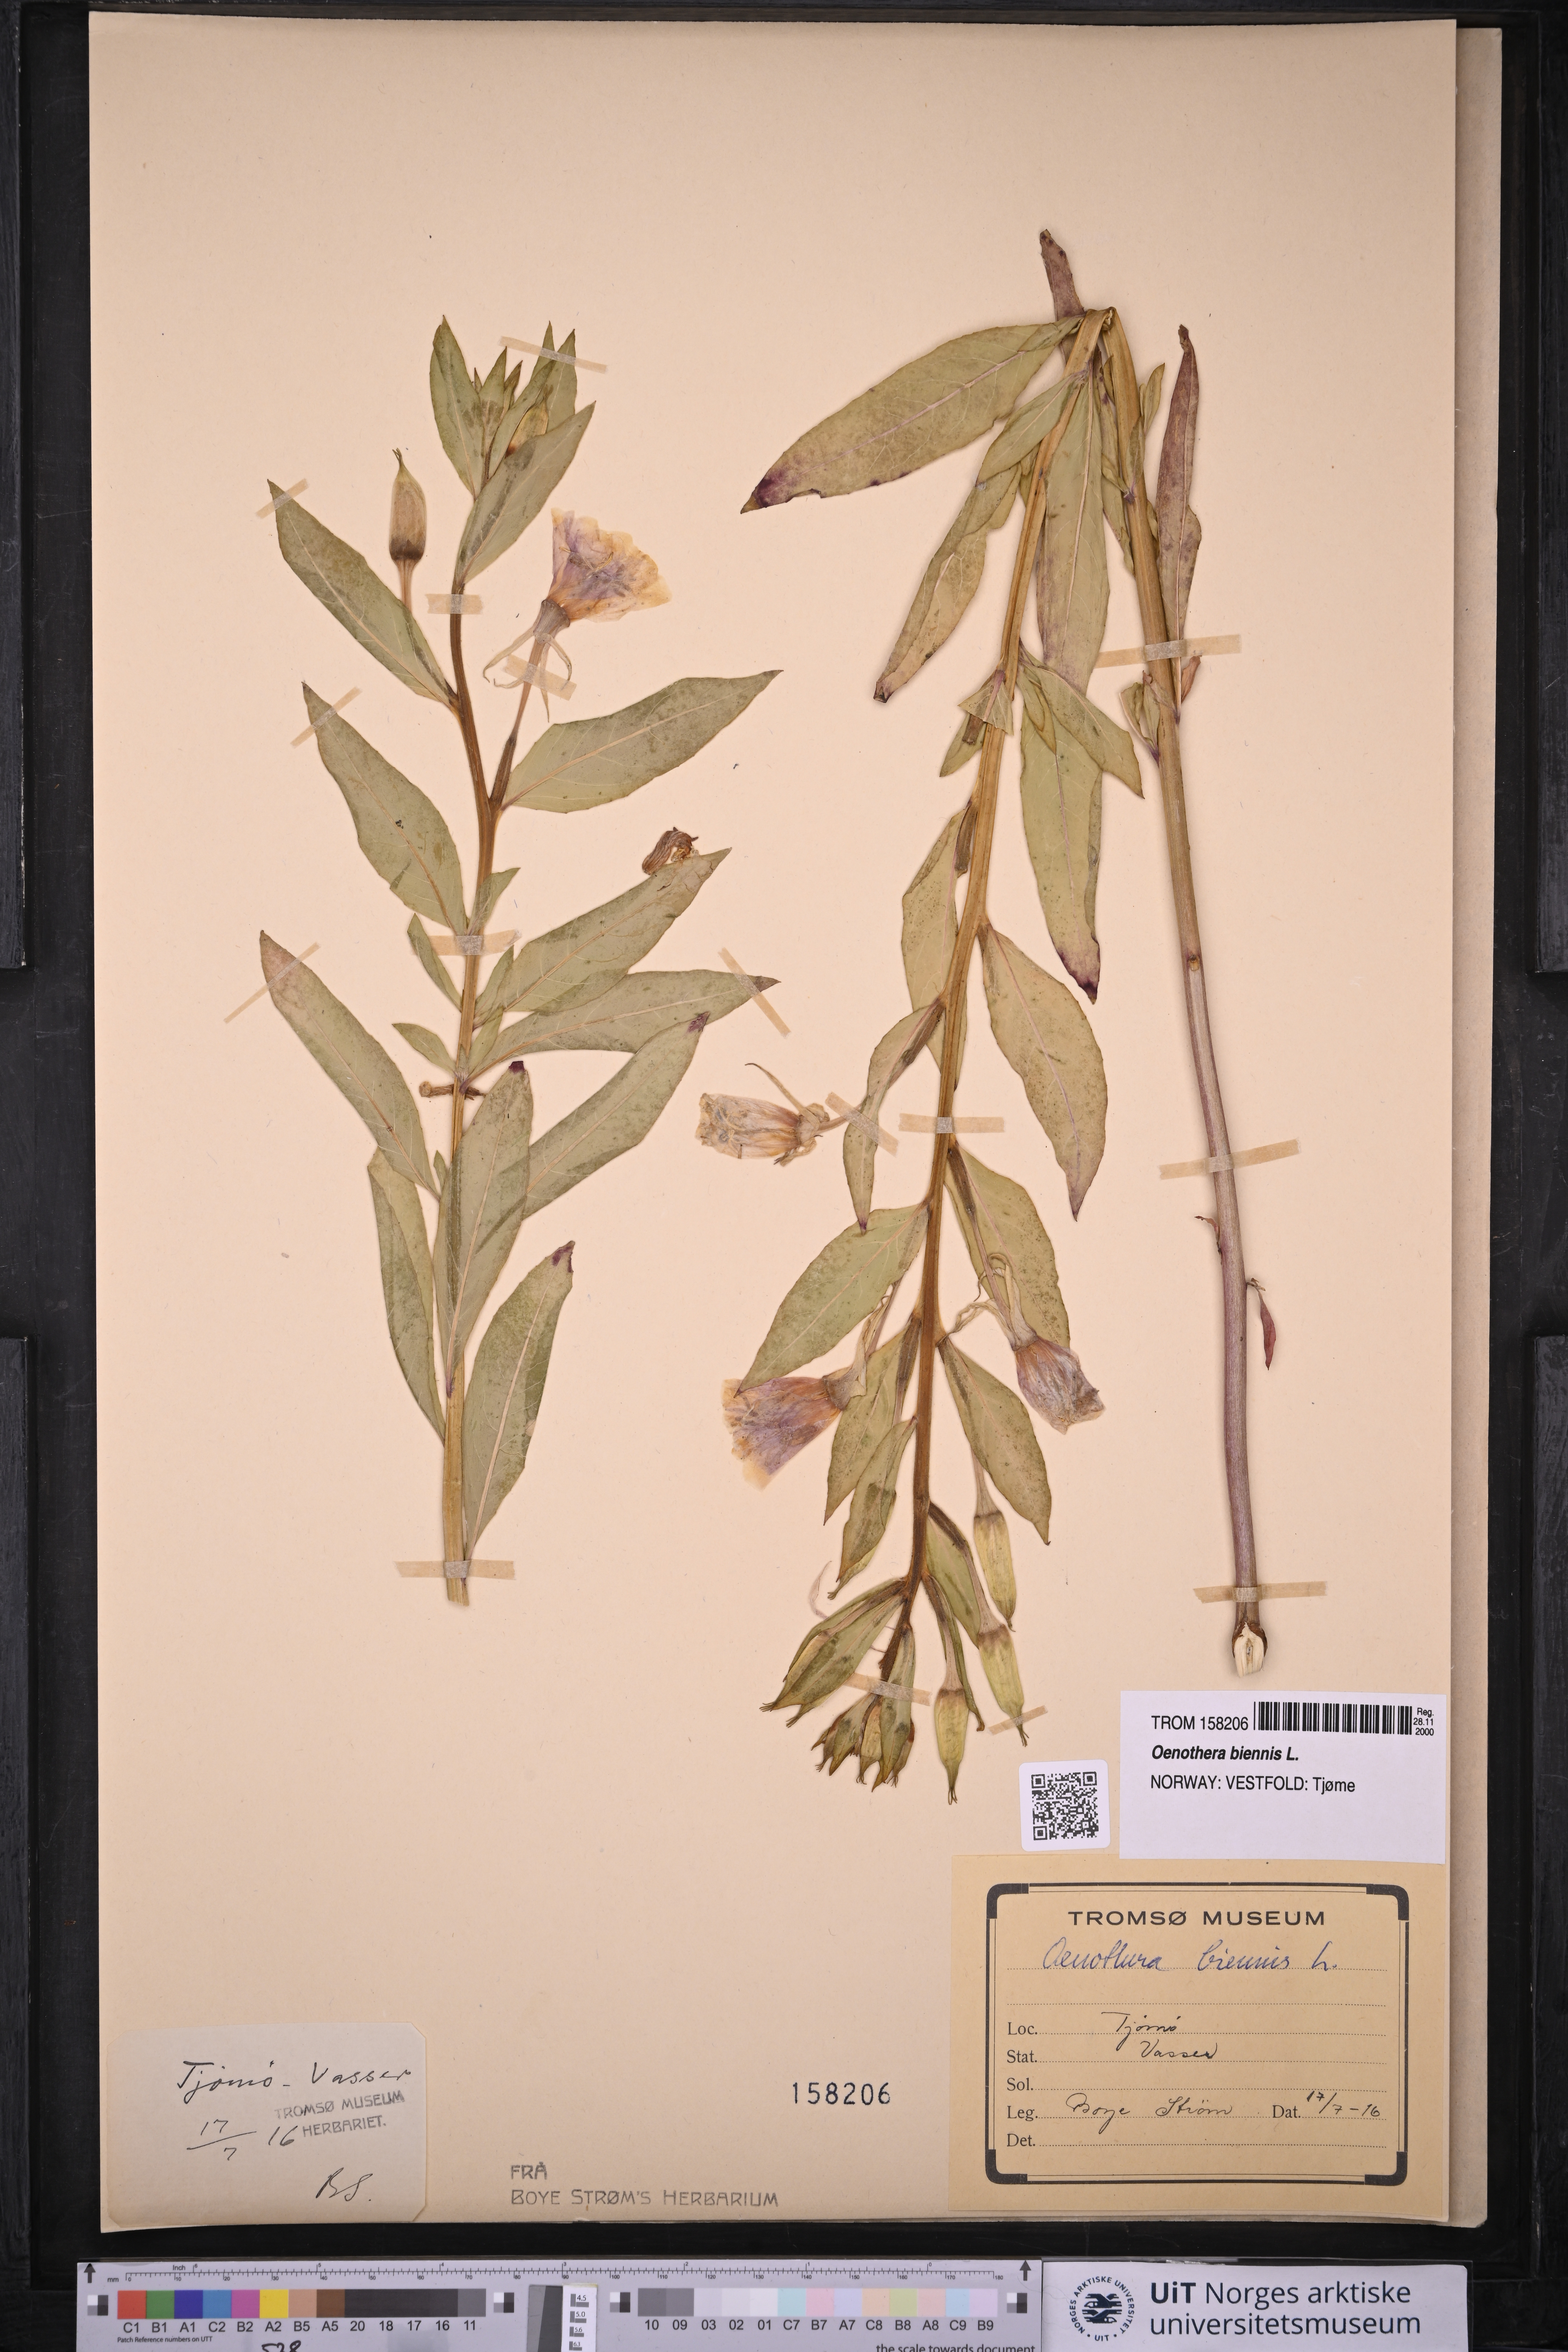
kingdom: Plantae
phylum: Tracheophyta
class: Magnoliopsida
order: Myrtales
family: Onagraceae
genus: Oenothera
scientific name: Oenothera biennis
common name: Common evening-primrose
